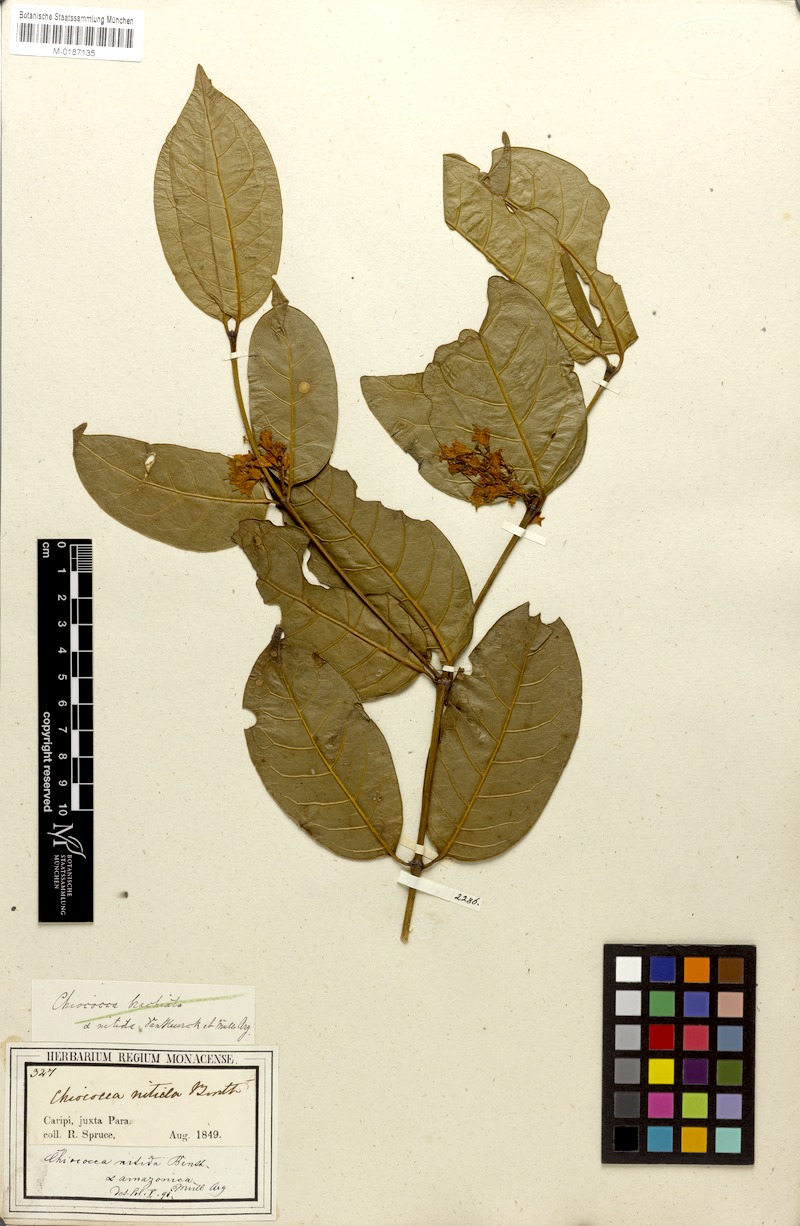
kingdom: Plantae
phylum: Tracheophyta
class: Magnoliopsida
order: Gentianales
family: Rubiaceae
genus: Chiococca
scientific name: Chiococca nitida
